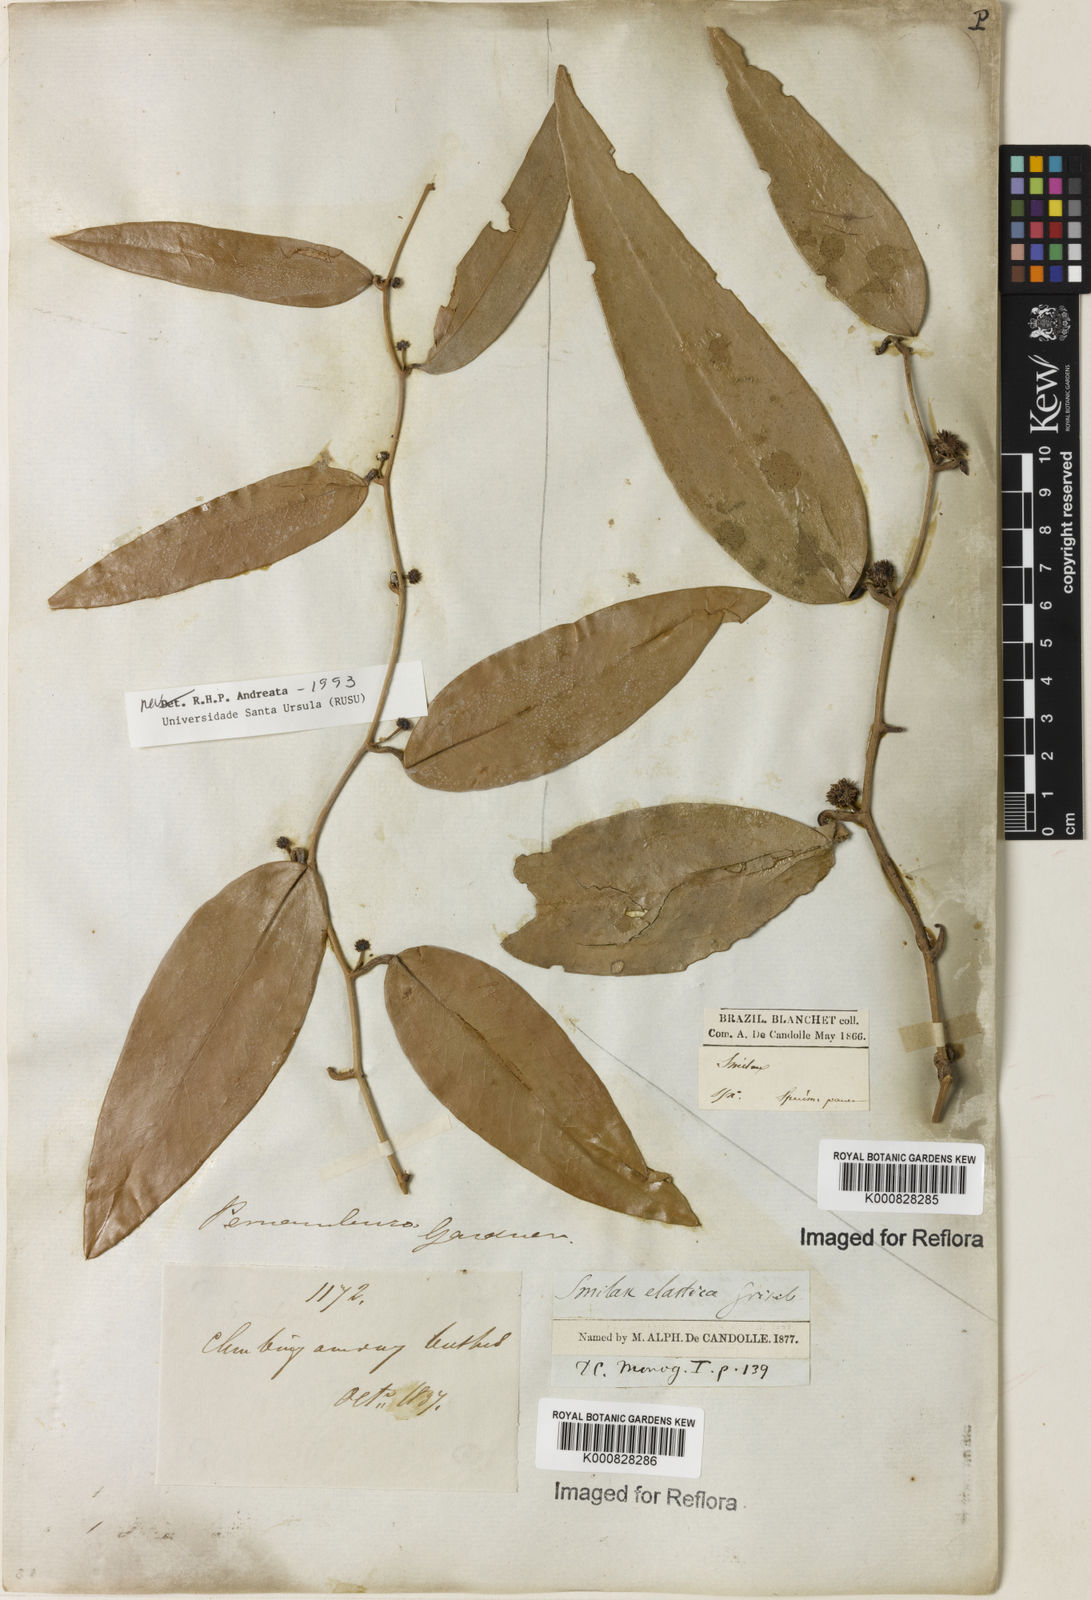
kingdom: Plantae
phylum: Tracheophyta
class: Liliopsida
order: Liliales
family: Smilacaceae
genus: Smilax
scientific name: Smilax elastica
